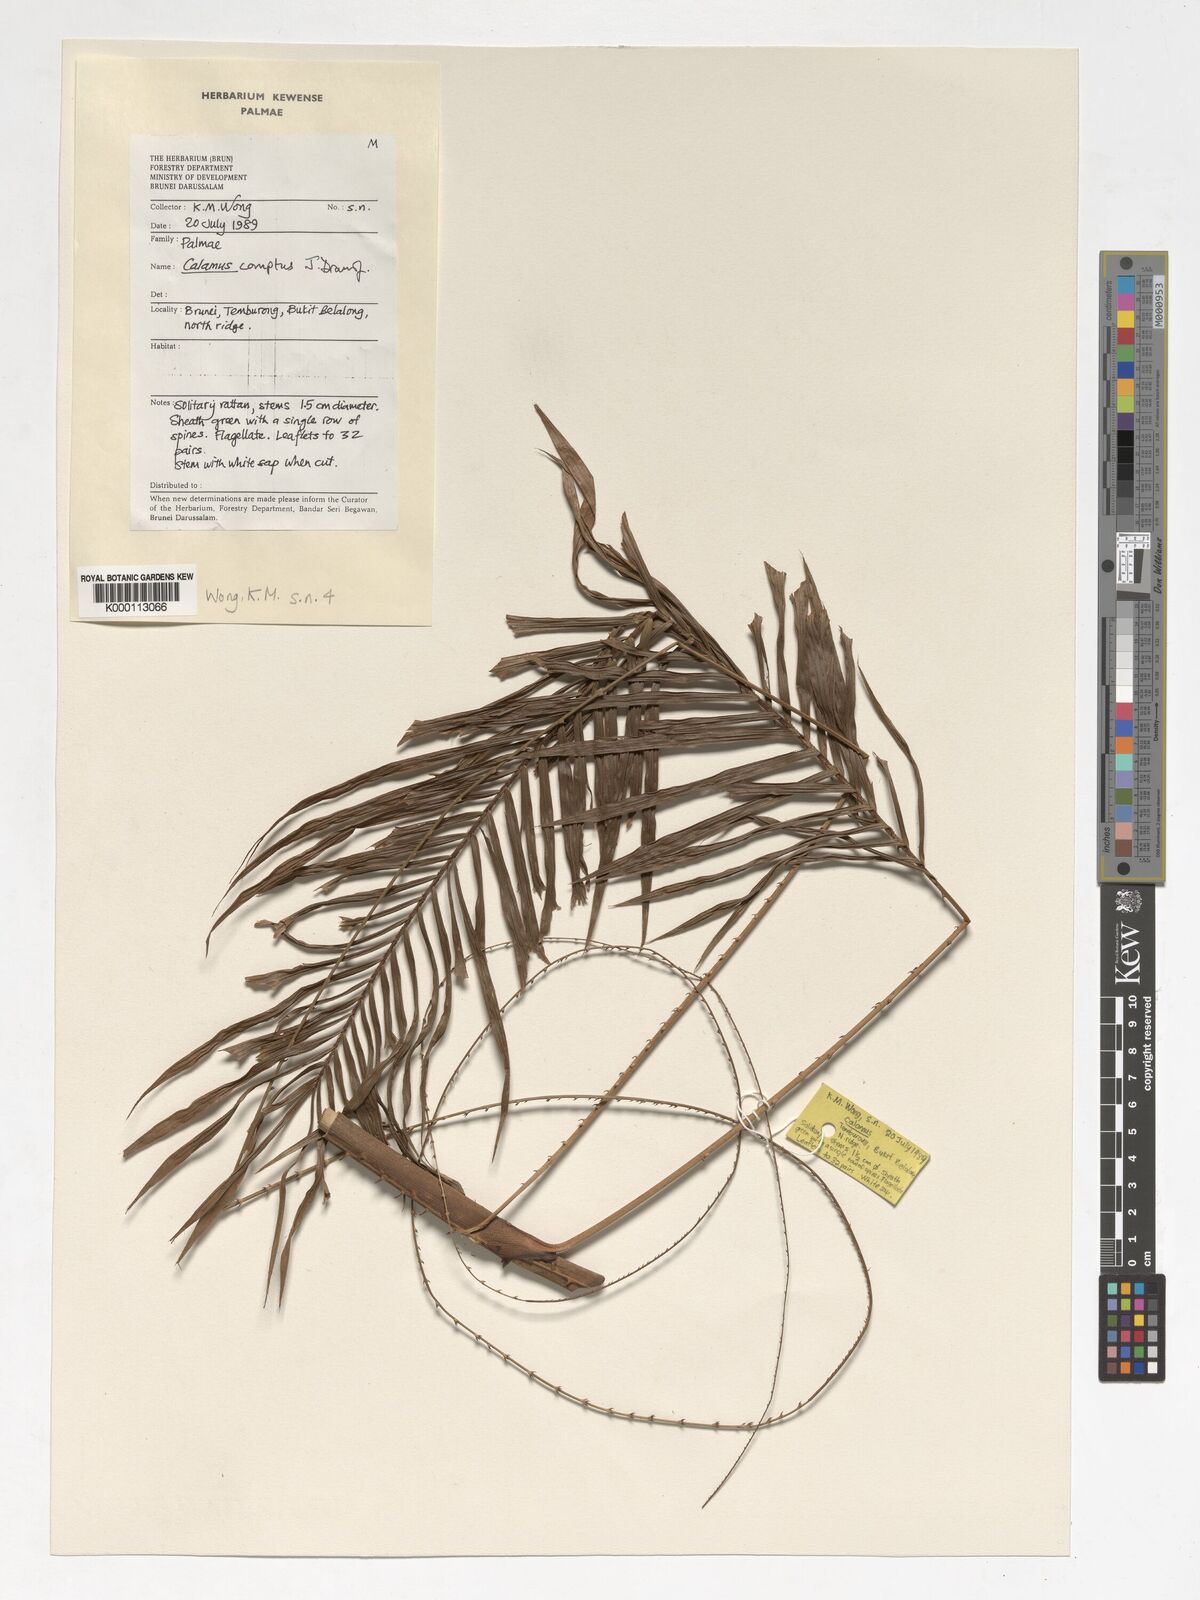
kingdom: Plantae
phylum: Tracheophyta
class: Liliopsida
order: Arecales
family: Arecaceae
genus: Calamus
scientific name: Calamus comptus
